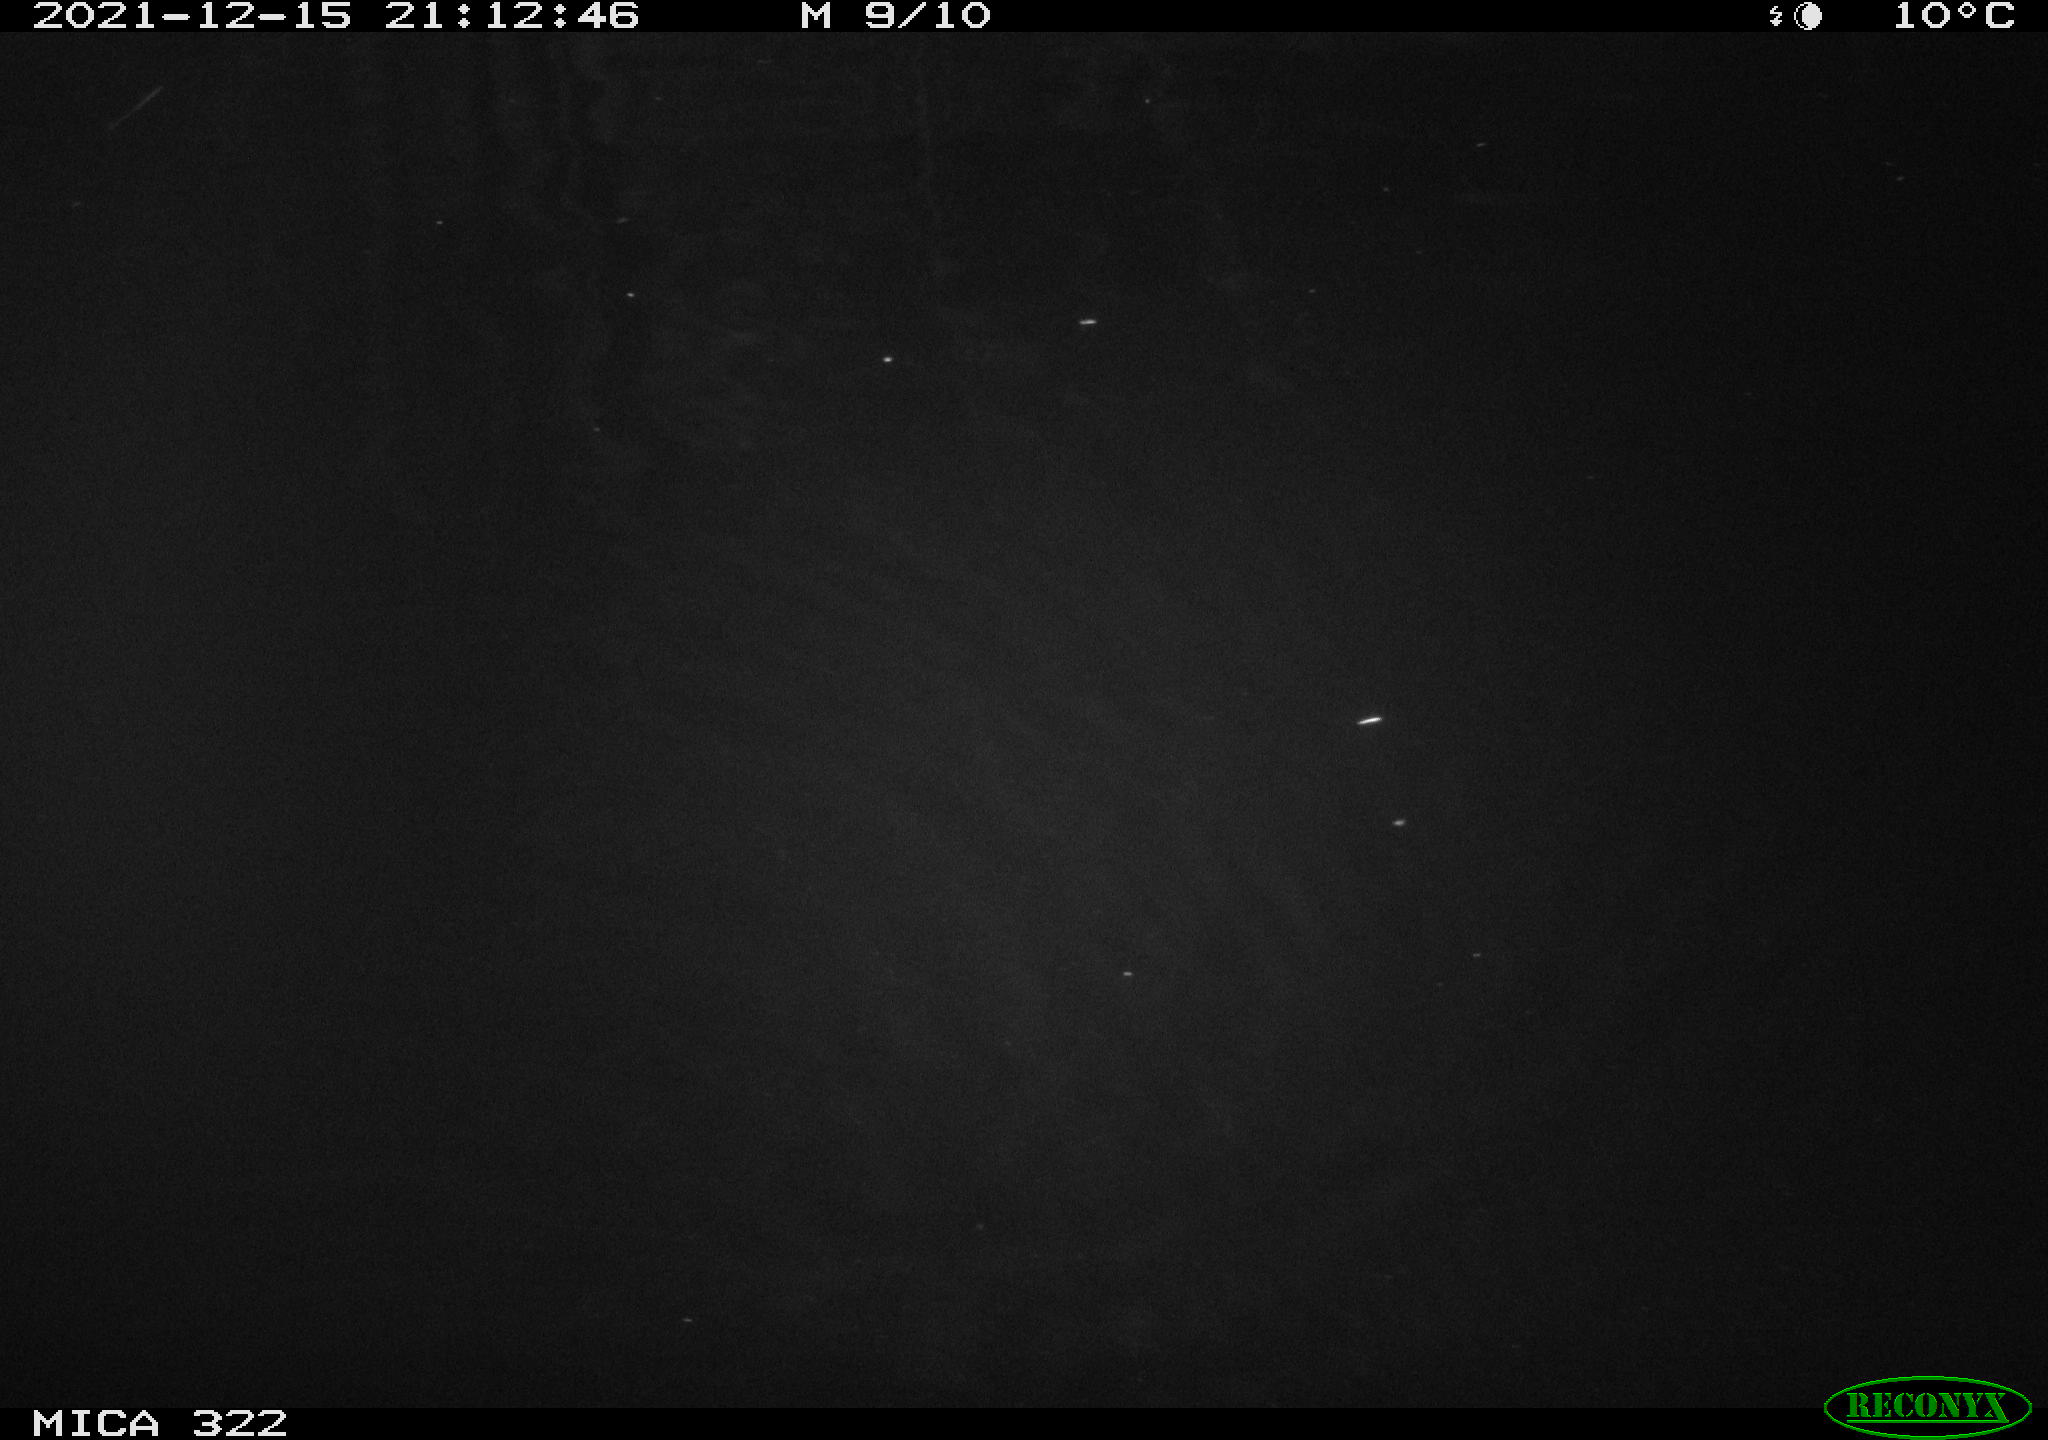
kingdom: Animalia
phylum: Chordata
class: Mammalia
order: Rodentia
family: Muridae
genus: Rattus
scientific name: Rattus norvegicus
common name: Brown rat
